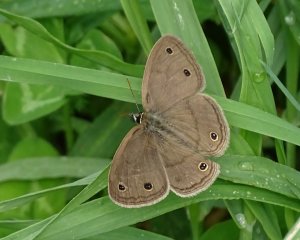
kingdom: Animalia
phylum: Arthropoda
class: Insecta
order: Lepidoptera
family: Nymphalidae
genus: Euptychia
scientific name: Euptychia cymela
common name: Little Wood Satyr
